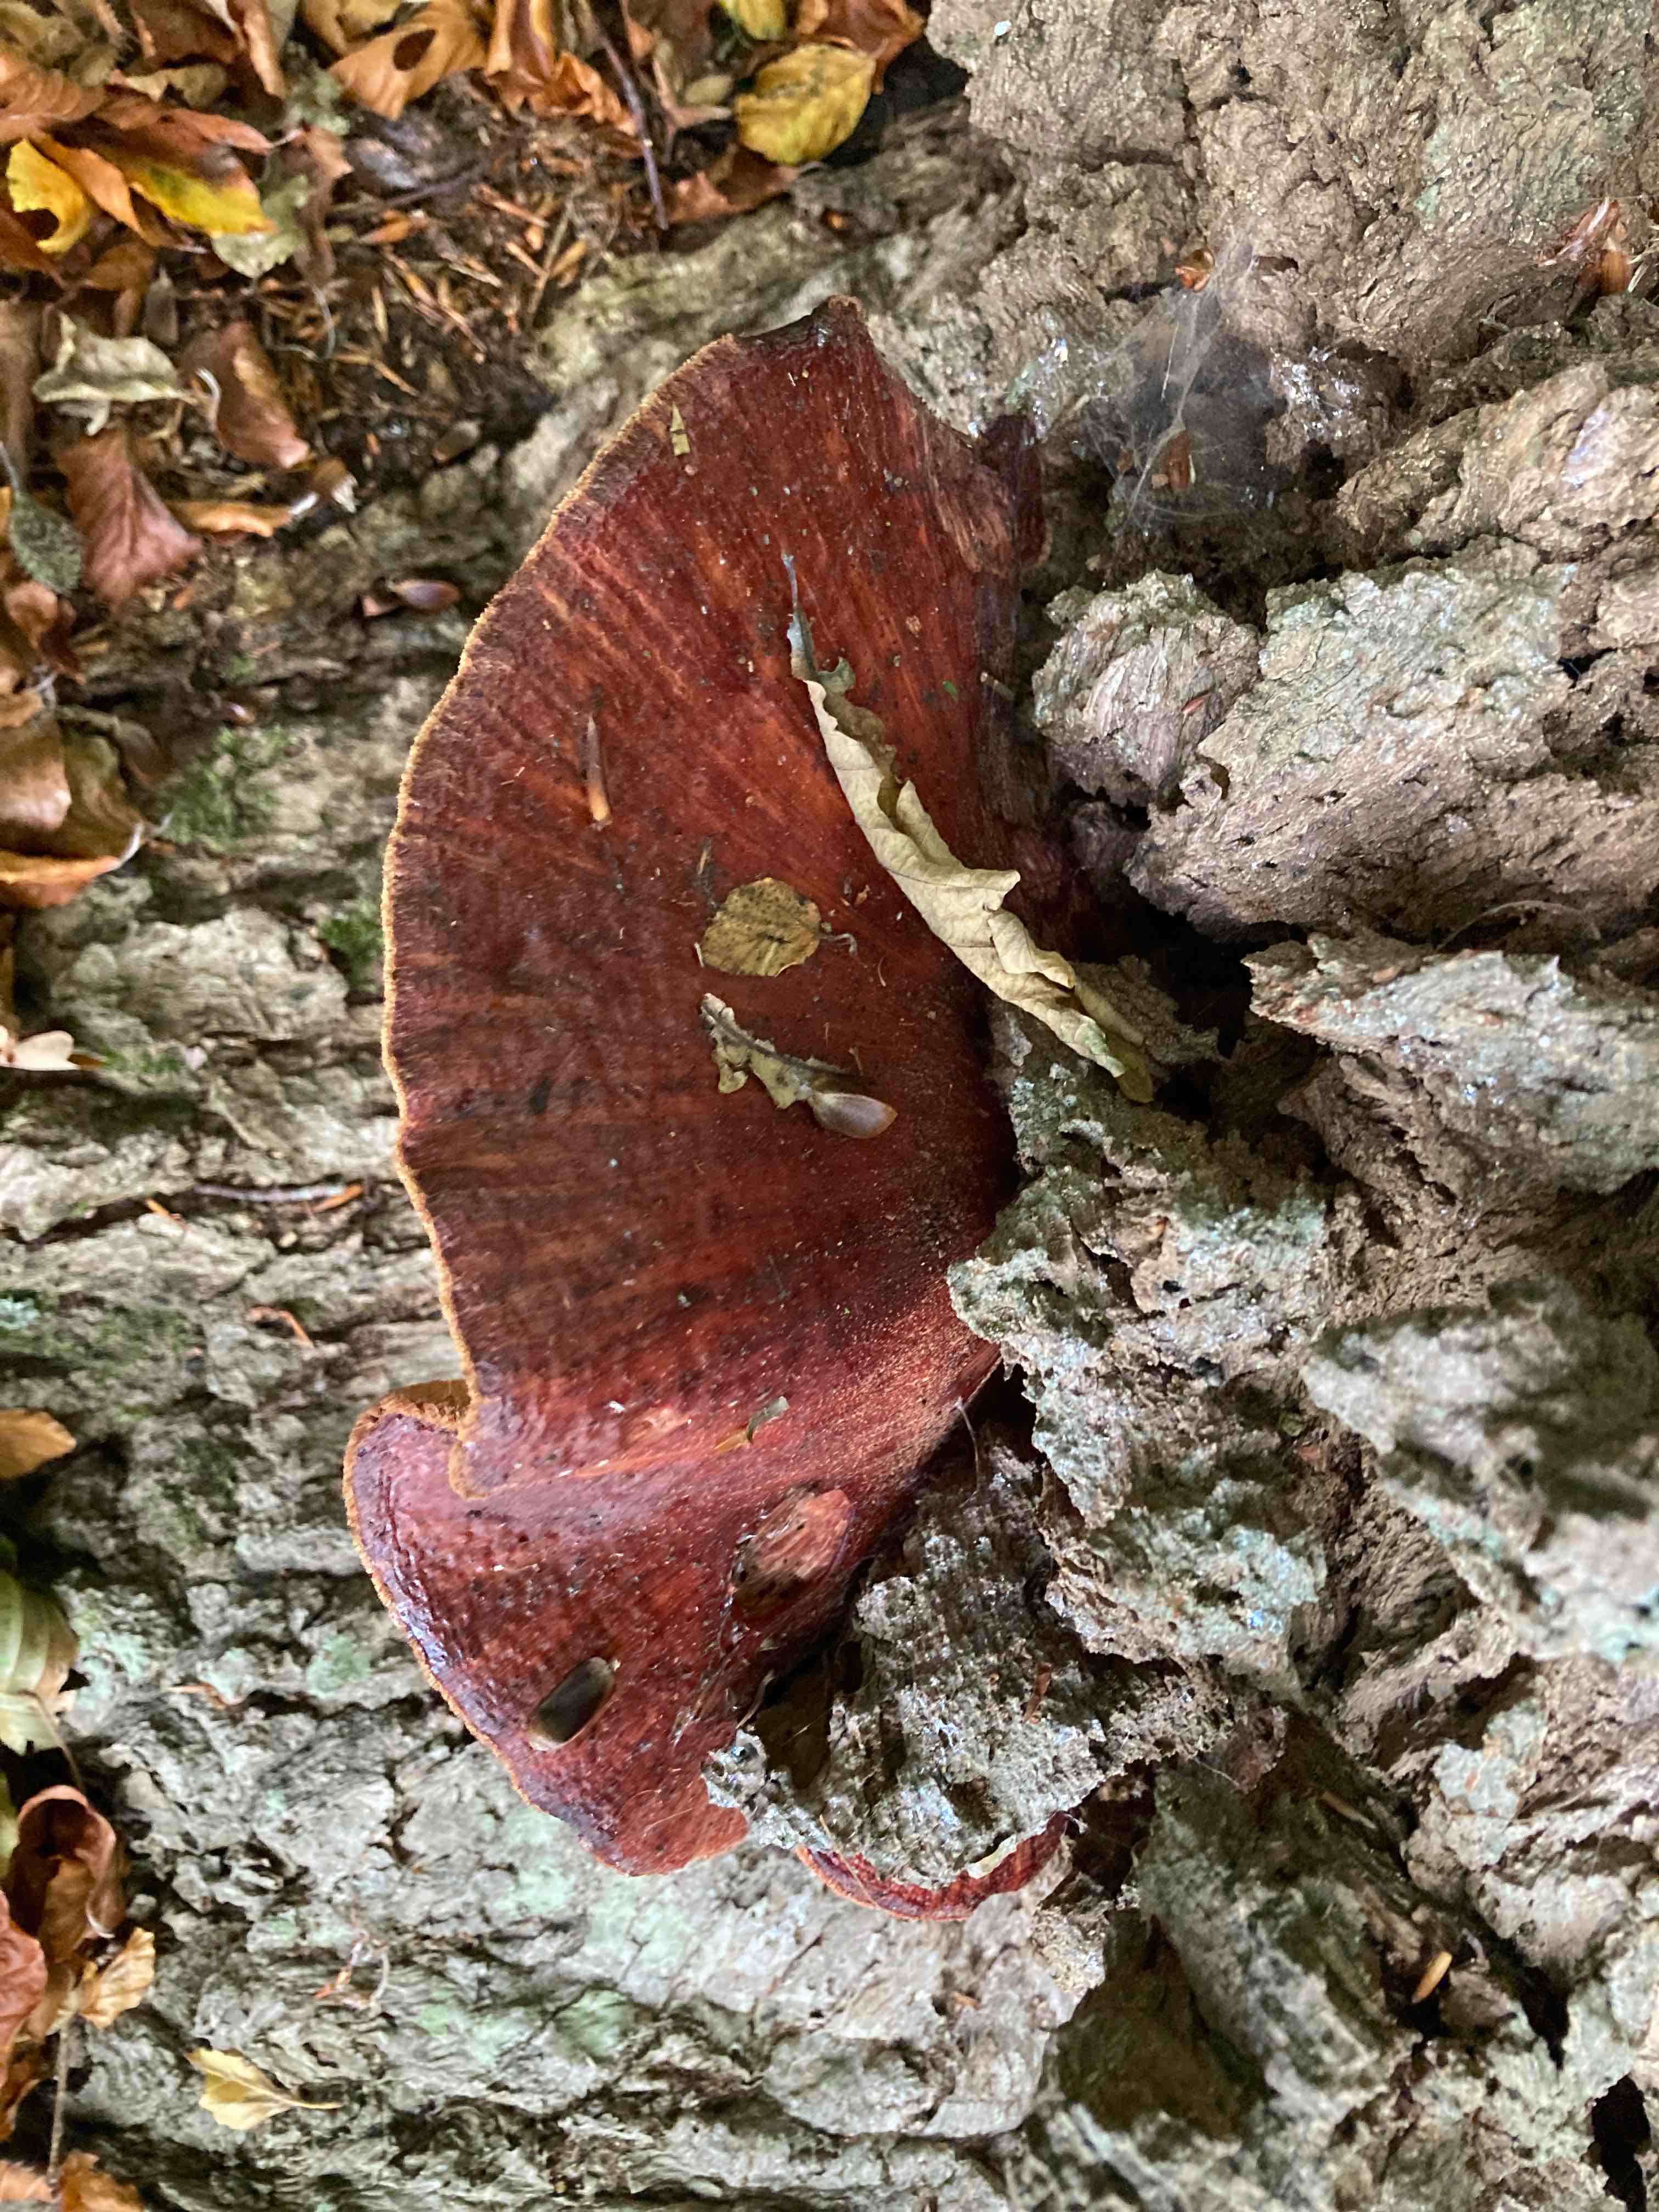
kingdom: Fungi
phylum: Basidiomycota
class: Agaricomycetes
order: Agaricales
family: Fistulinaceae
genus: Fistulina
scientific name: Fistulina hepatica
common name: oksetunge
